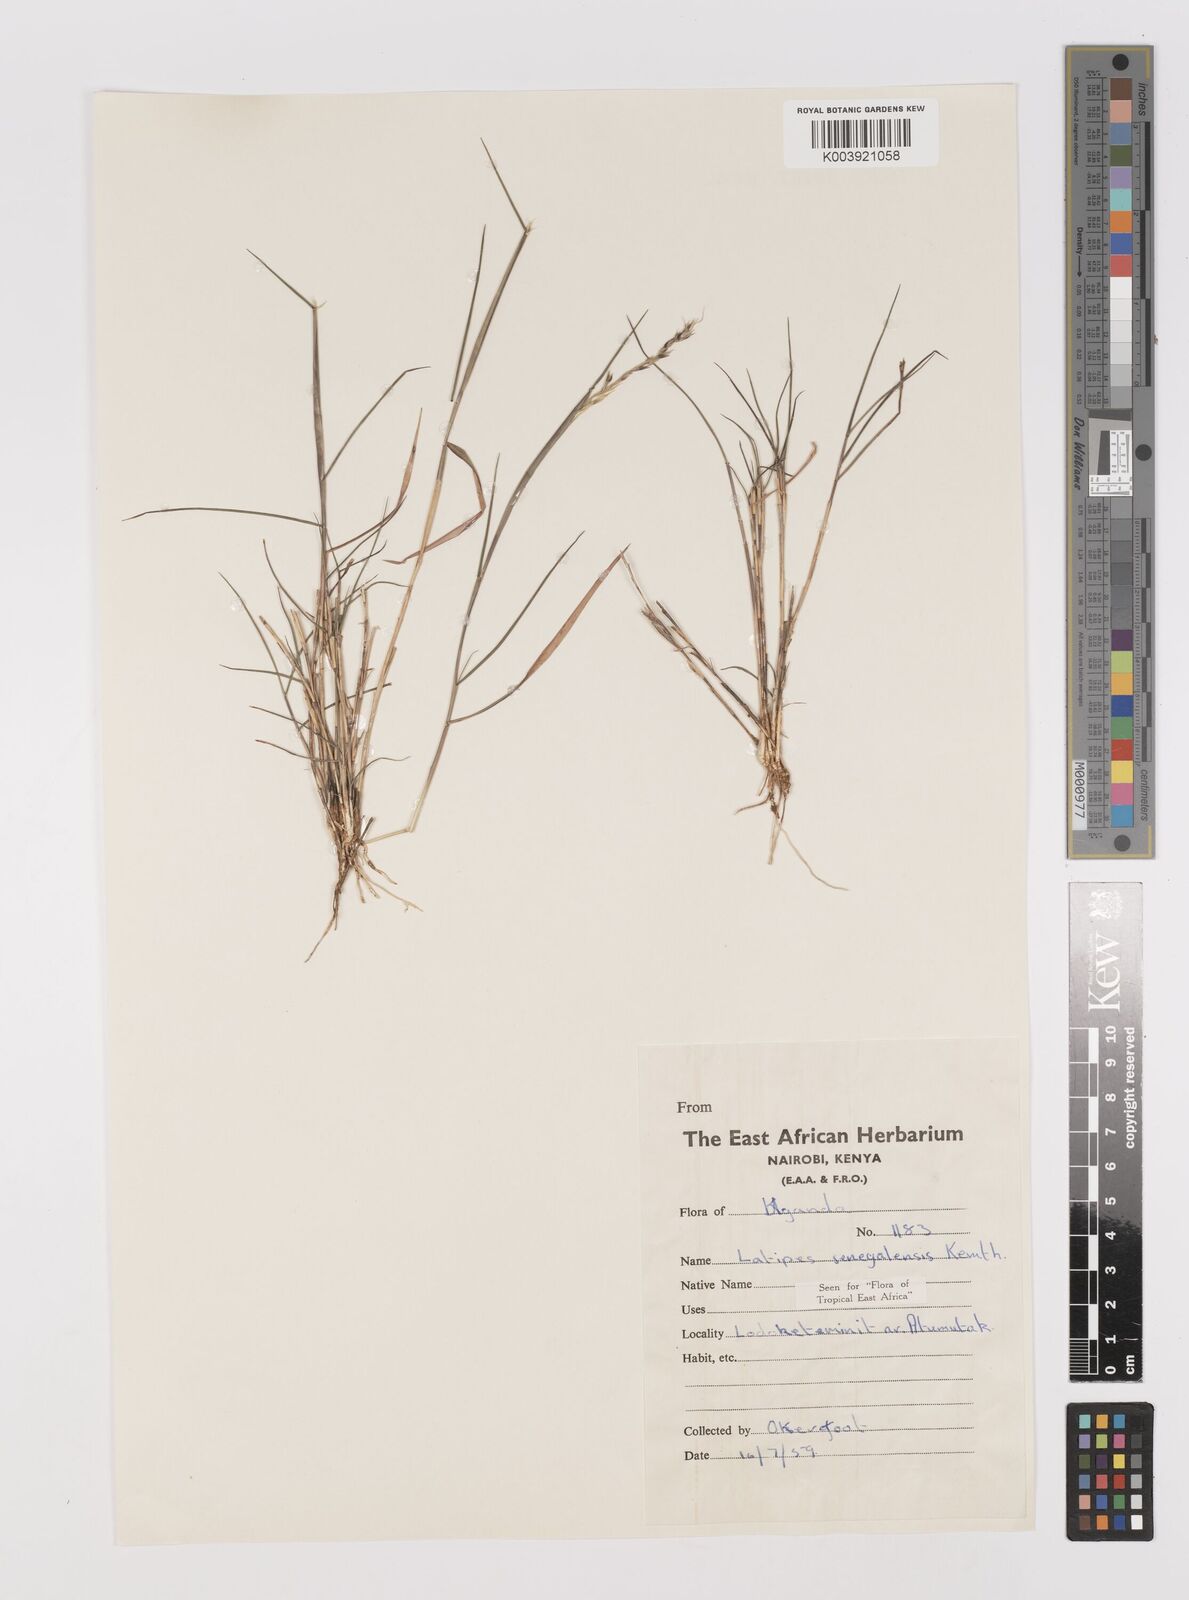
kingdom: Plantae
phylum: Tracheophyta
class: Liliopsida
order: Poales
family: Poaceae
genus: Leptothrium
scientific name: Leptothrium senegalense
